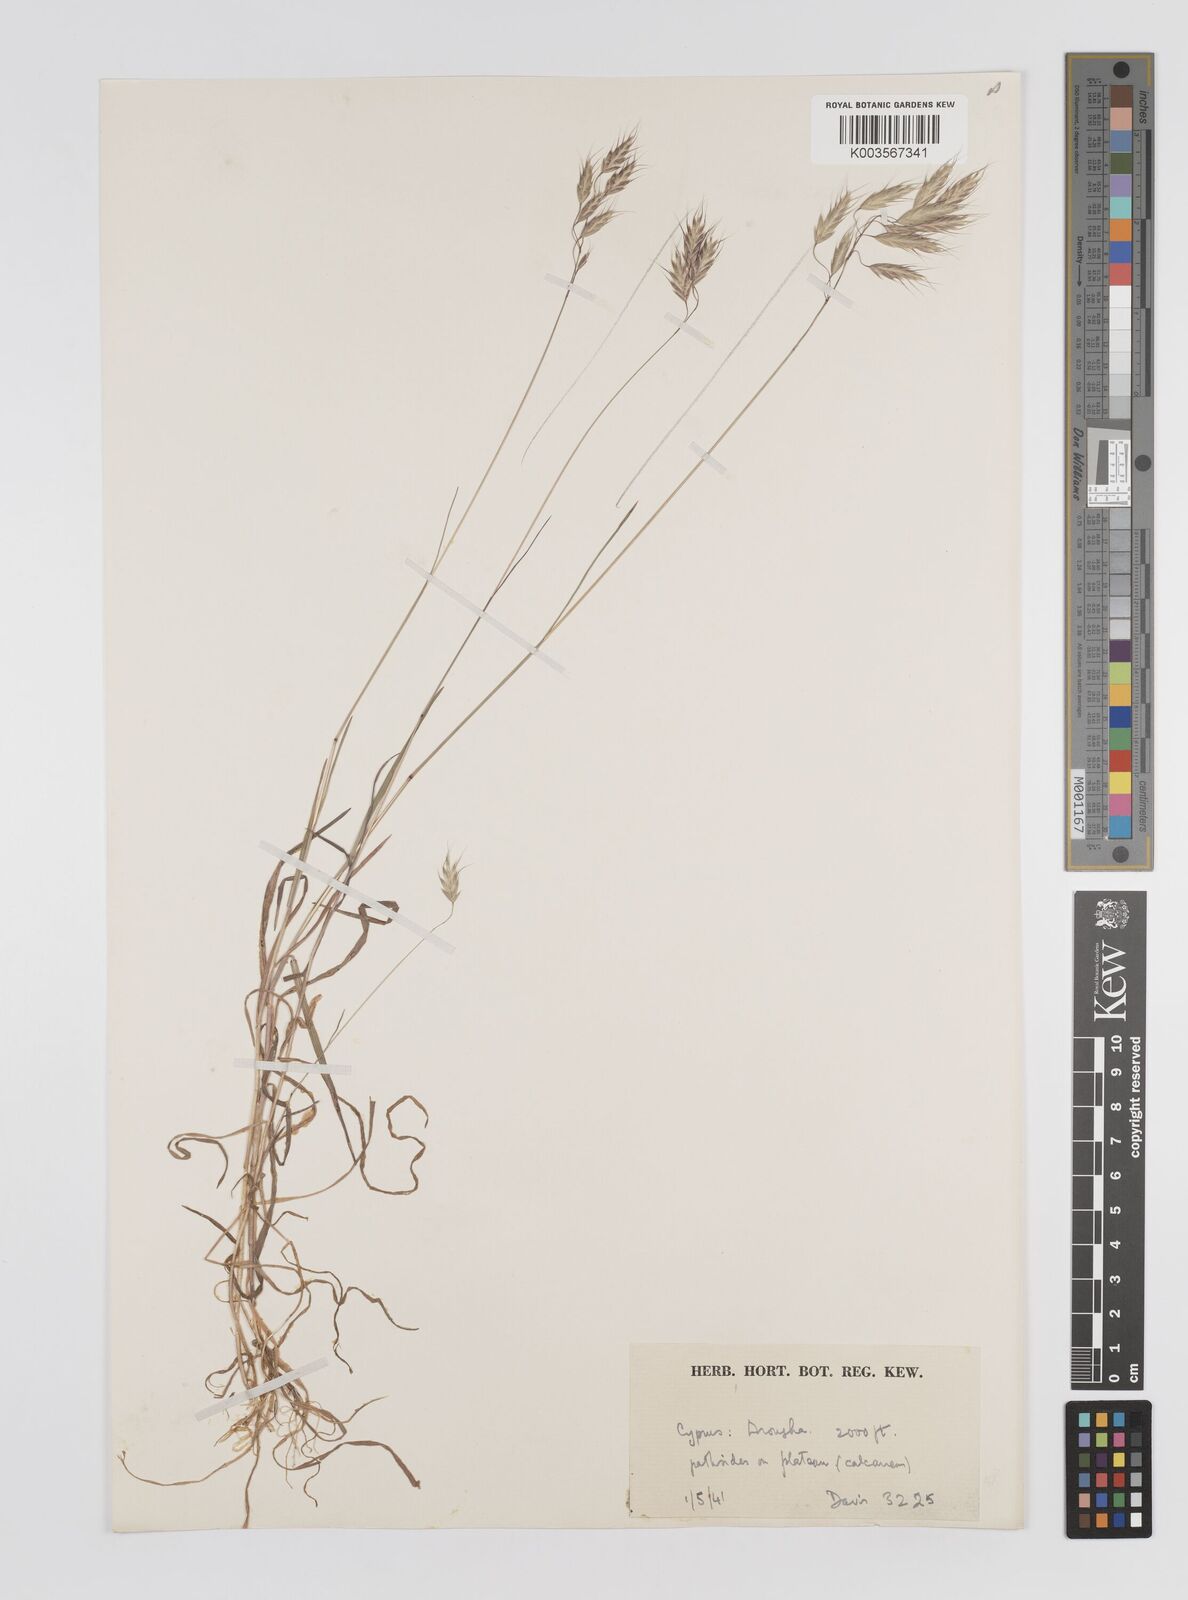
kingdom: Plantae
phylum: Tracheophyta
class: Liliopsida
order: Poales
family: Poaceae
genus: Bromus
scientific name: Bromus arvensis
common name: Field brome
